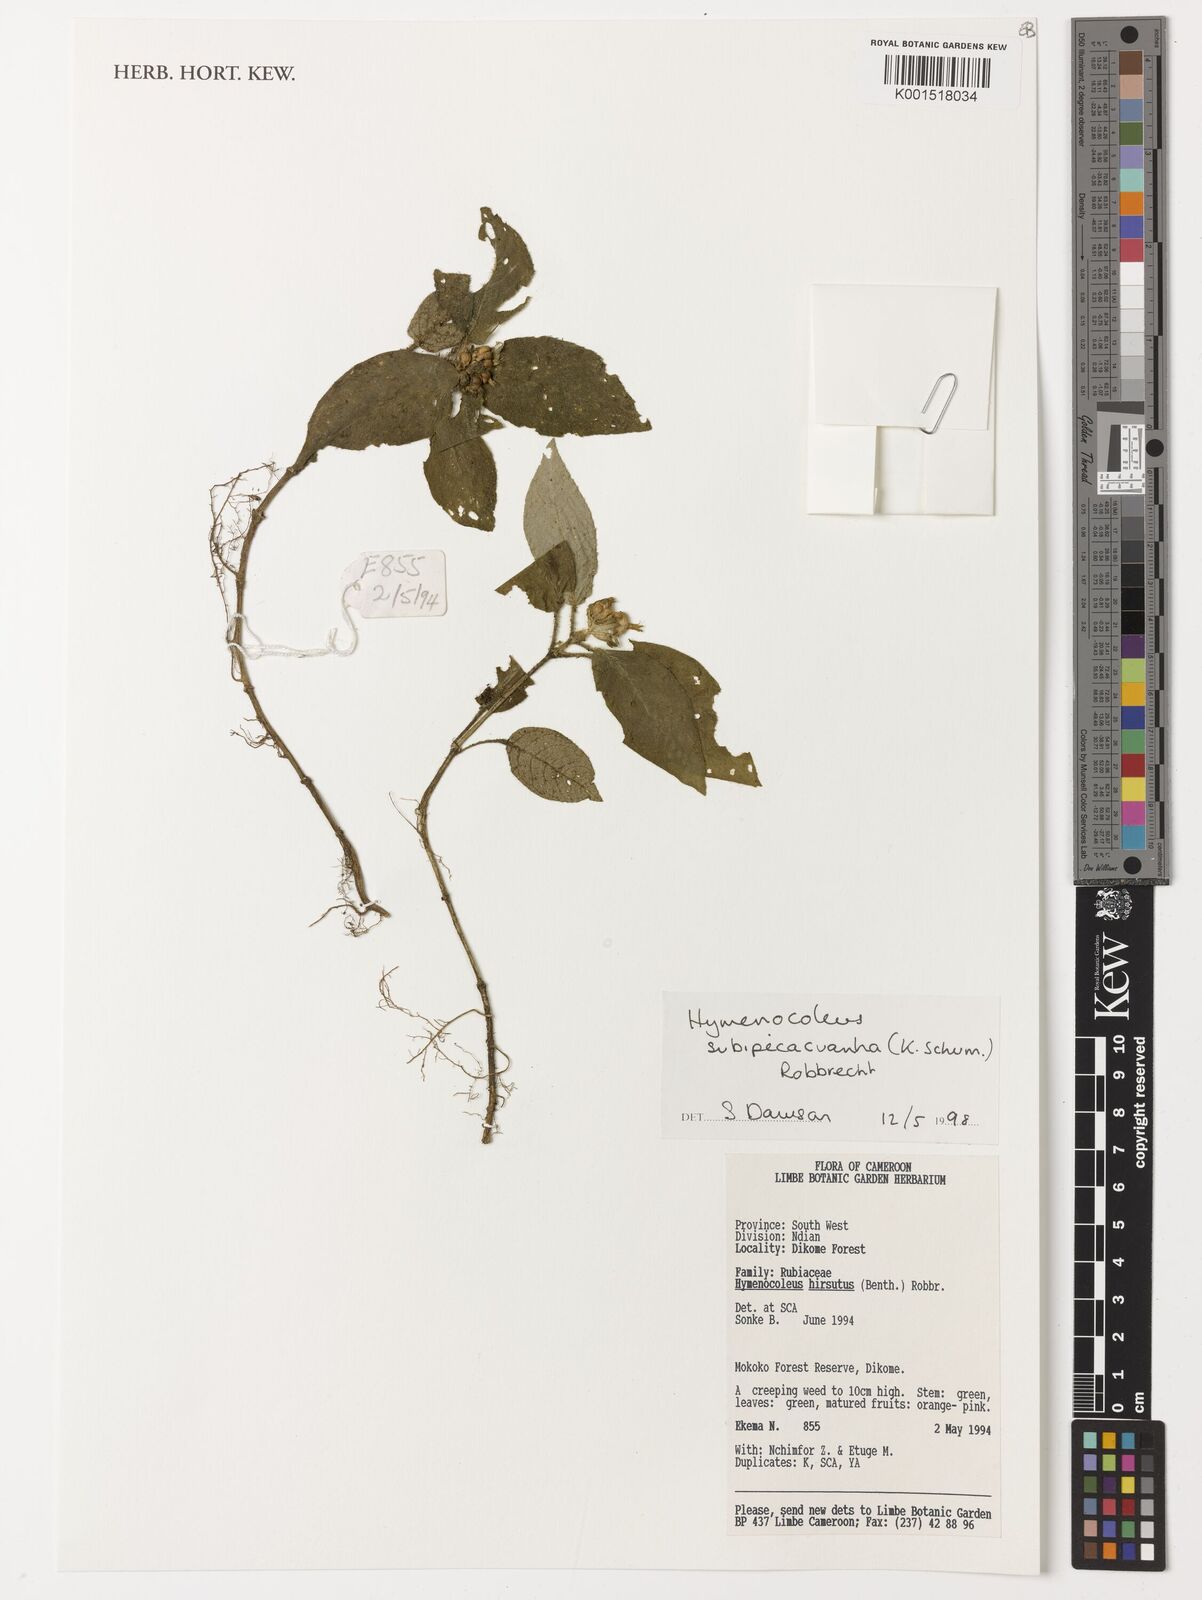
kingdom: Plantae
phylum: Tracheophyta
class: Magnoliopsida
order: Gentianales
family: Rubiaceae
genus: Hymenocoleus
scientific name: Hymenocoleus subipecacuanha
